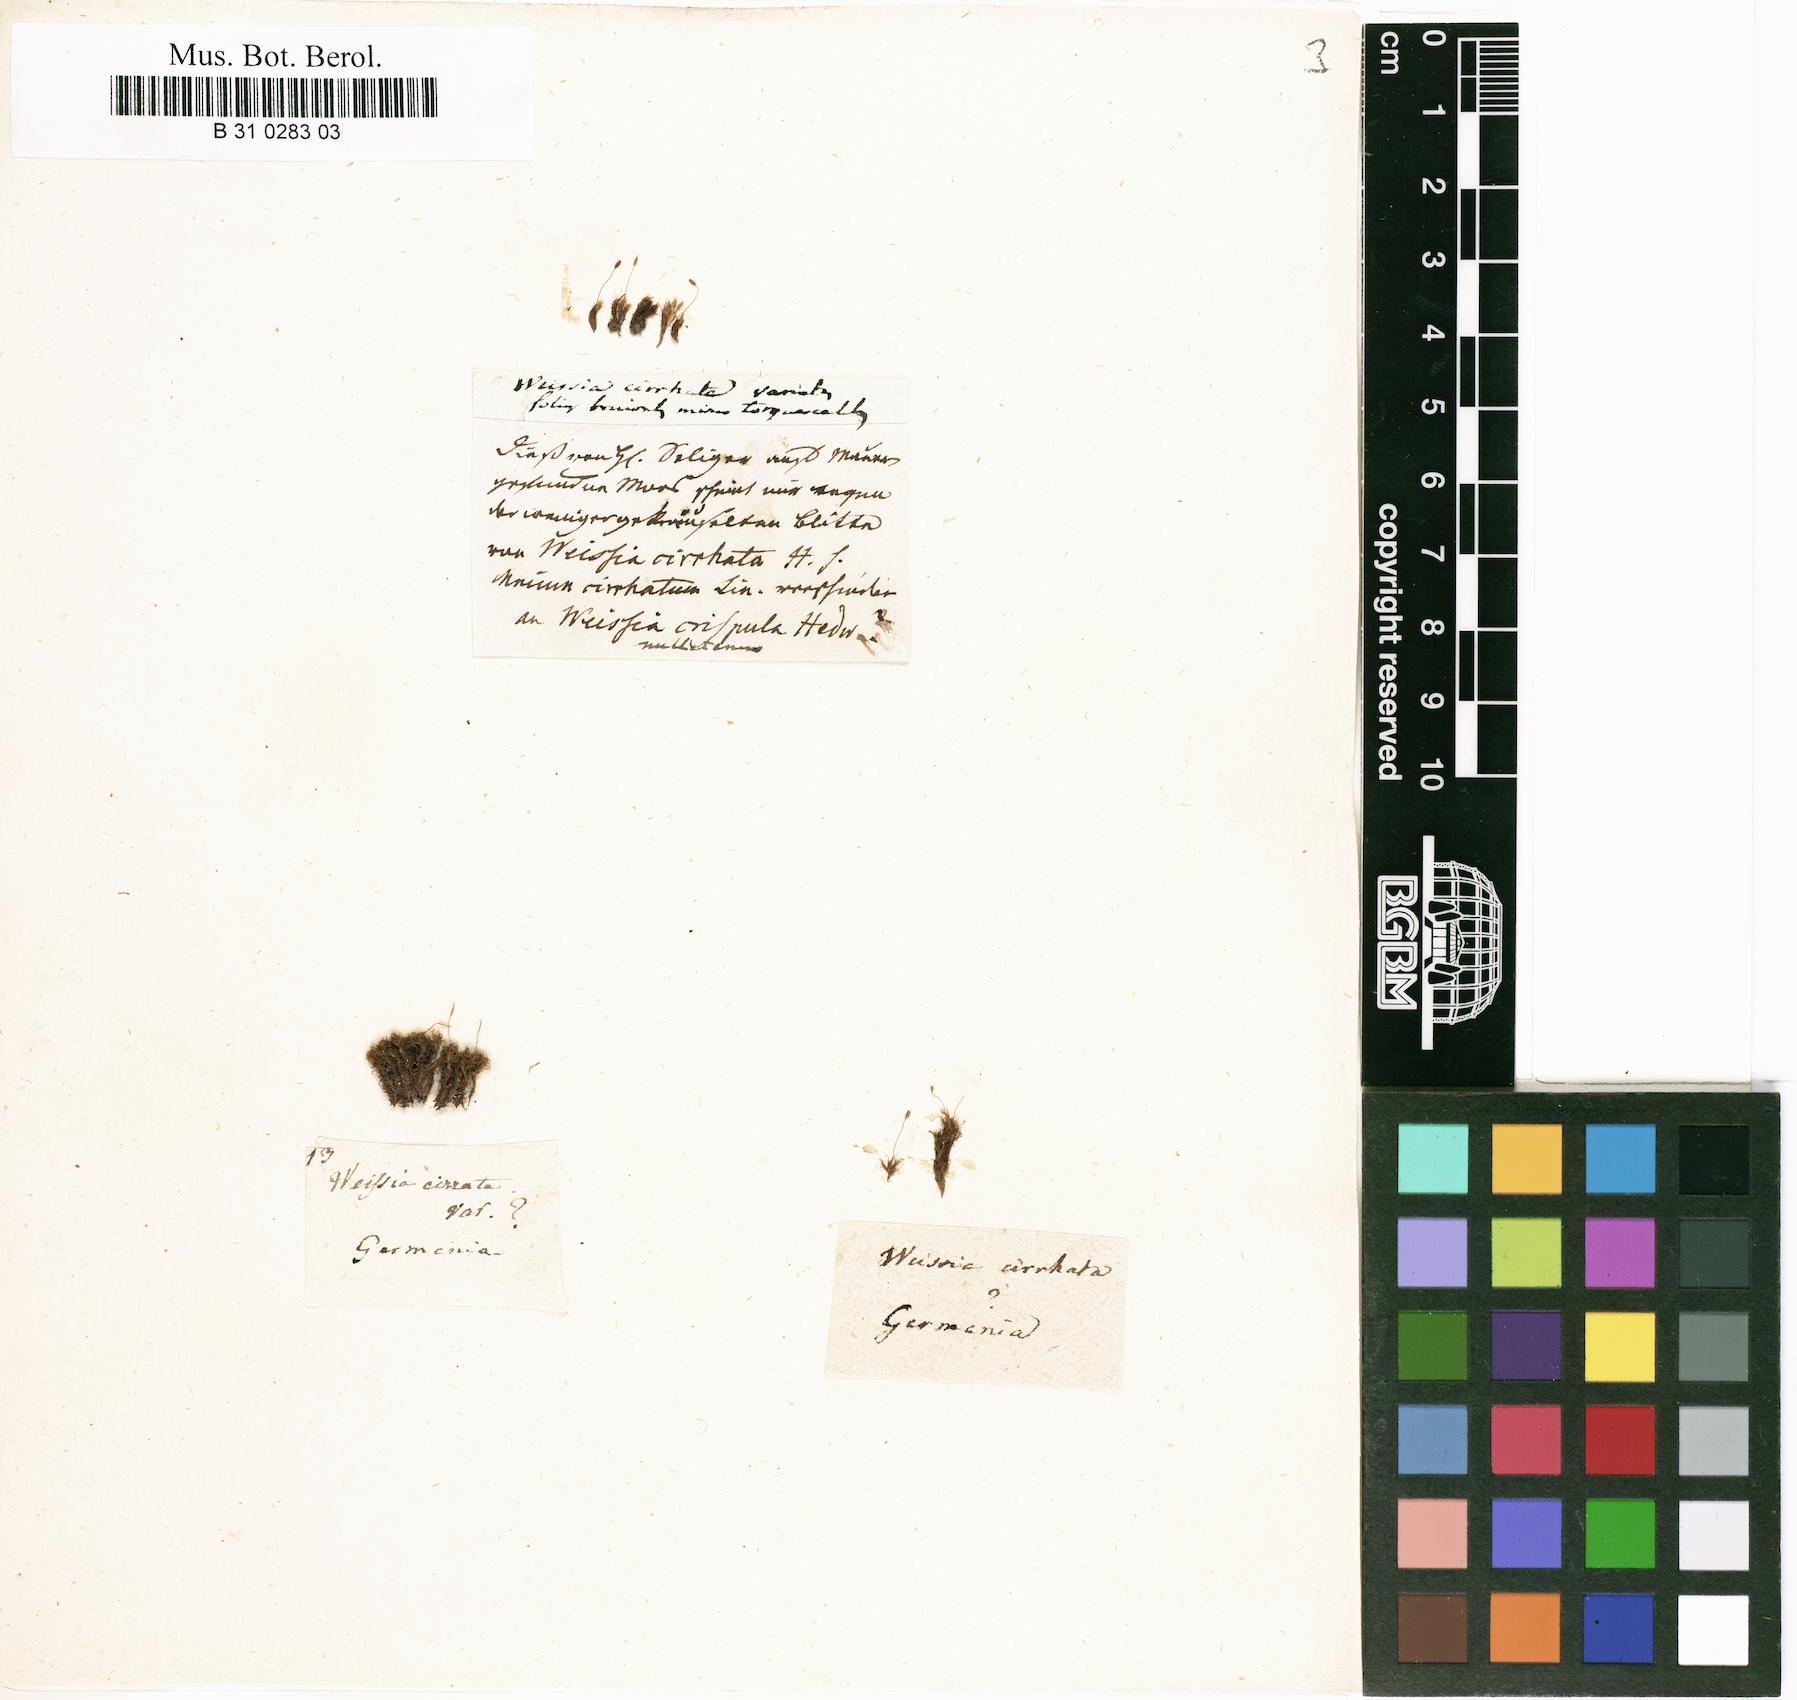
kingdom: Plantae
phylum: Bryophyta
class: Bryopsida
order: Dicranales
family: Rhabdoweisiaceae
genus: Dicranoweisia
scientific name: Dicranoweisia cirrata
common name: Common pincushion
